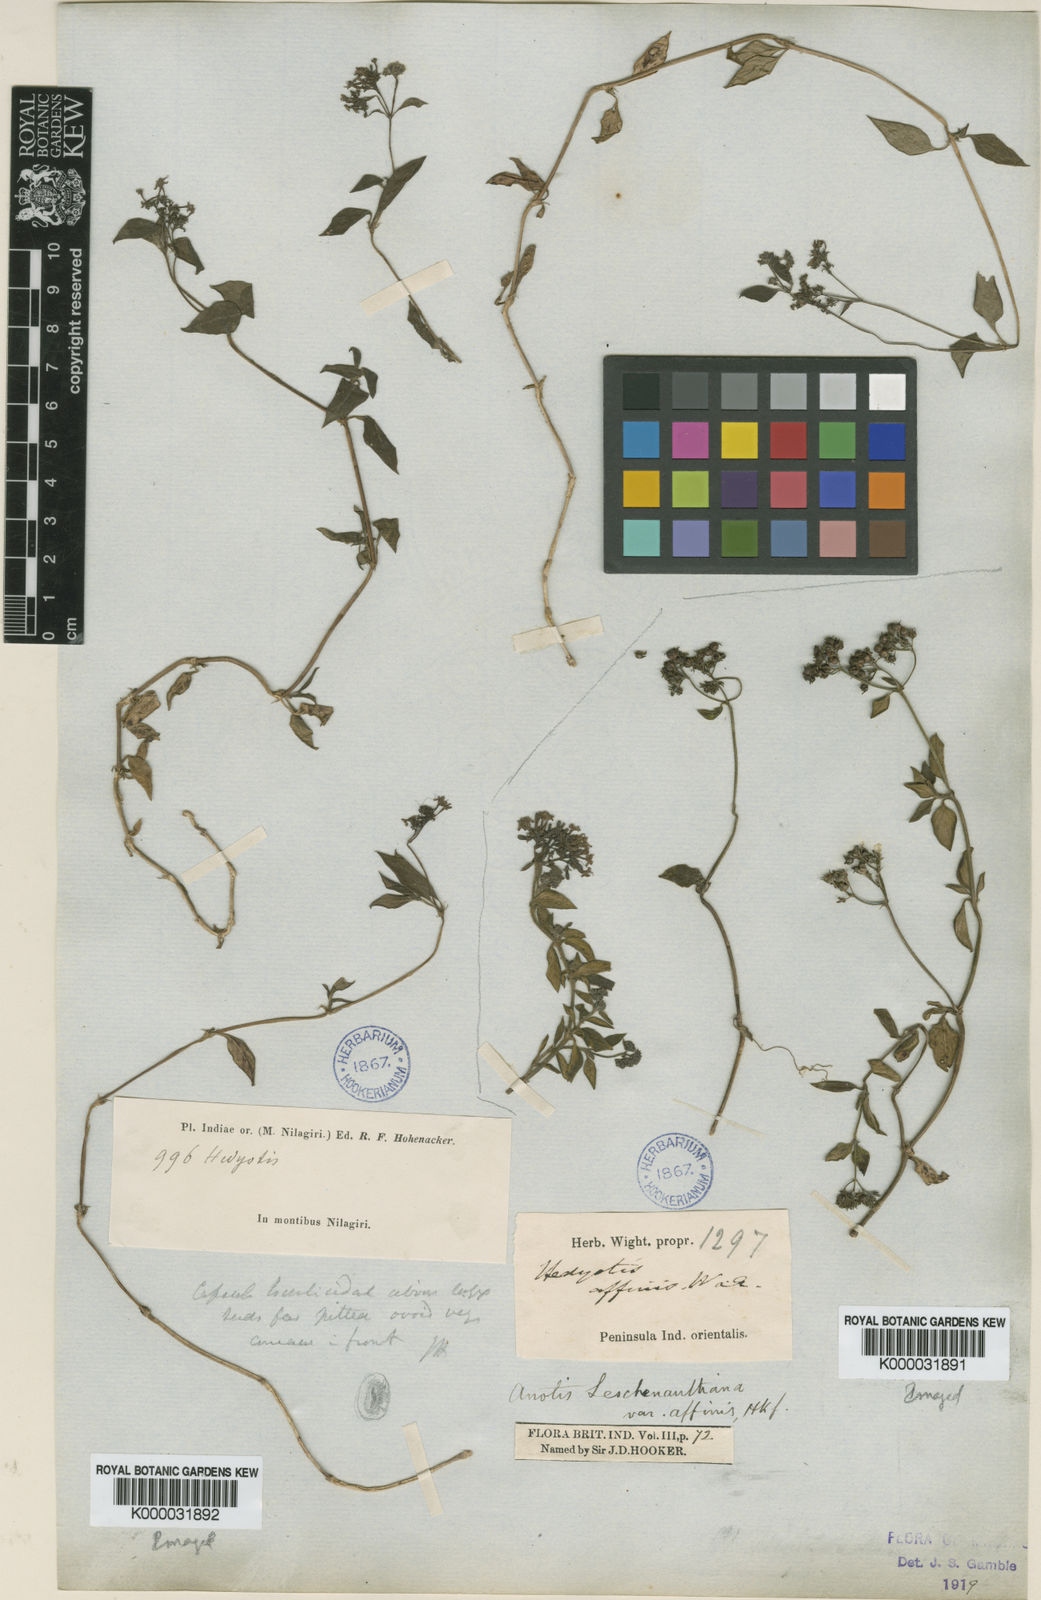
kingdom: Plantae
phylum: Tracheophyta
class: Magnoliopsida
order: Gentianales
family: Rubiaceae
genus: Neanotis
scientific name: Neanotis indica
